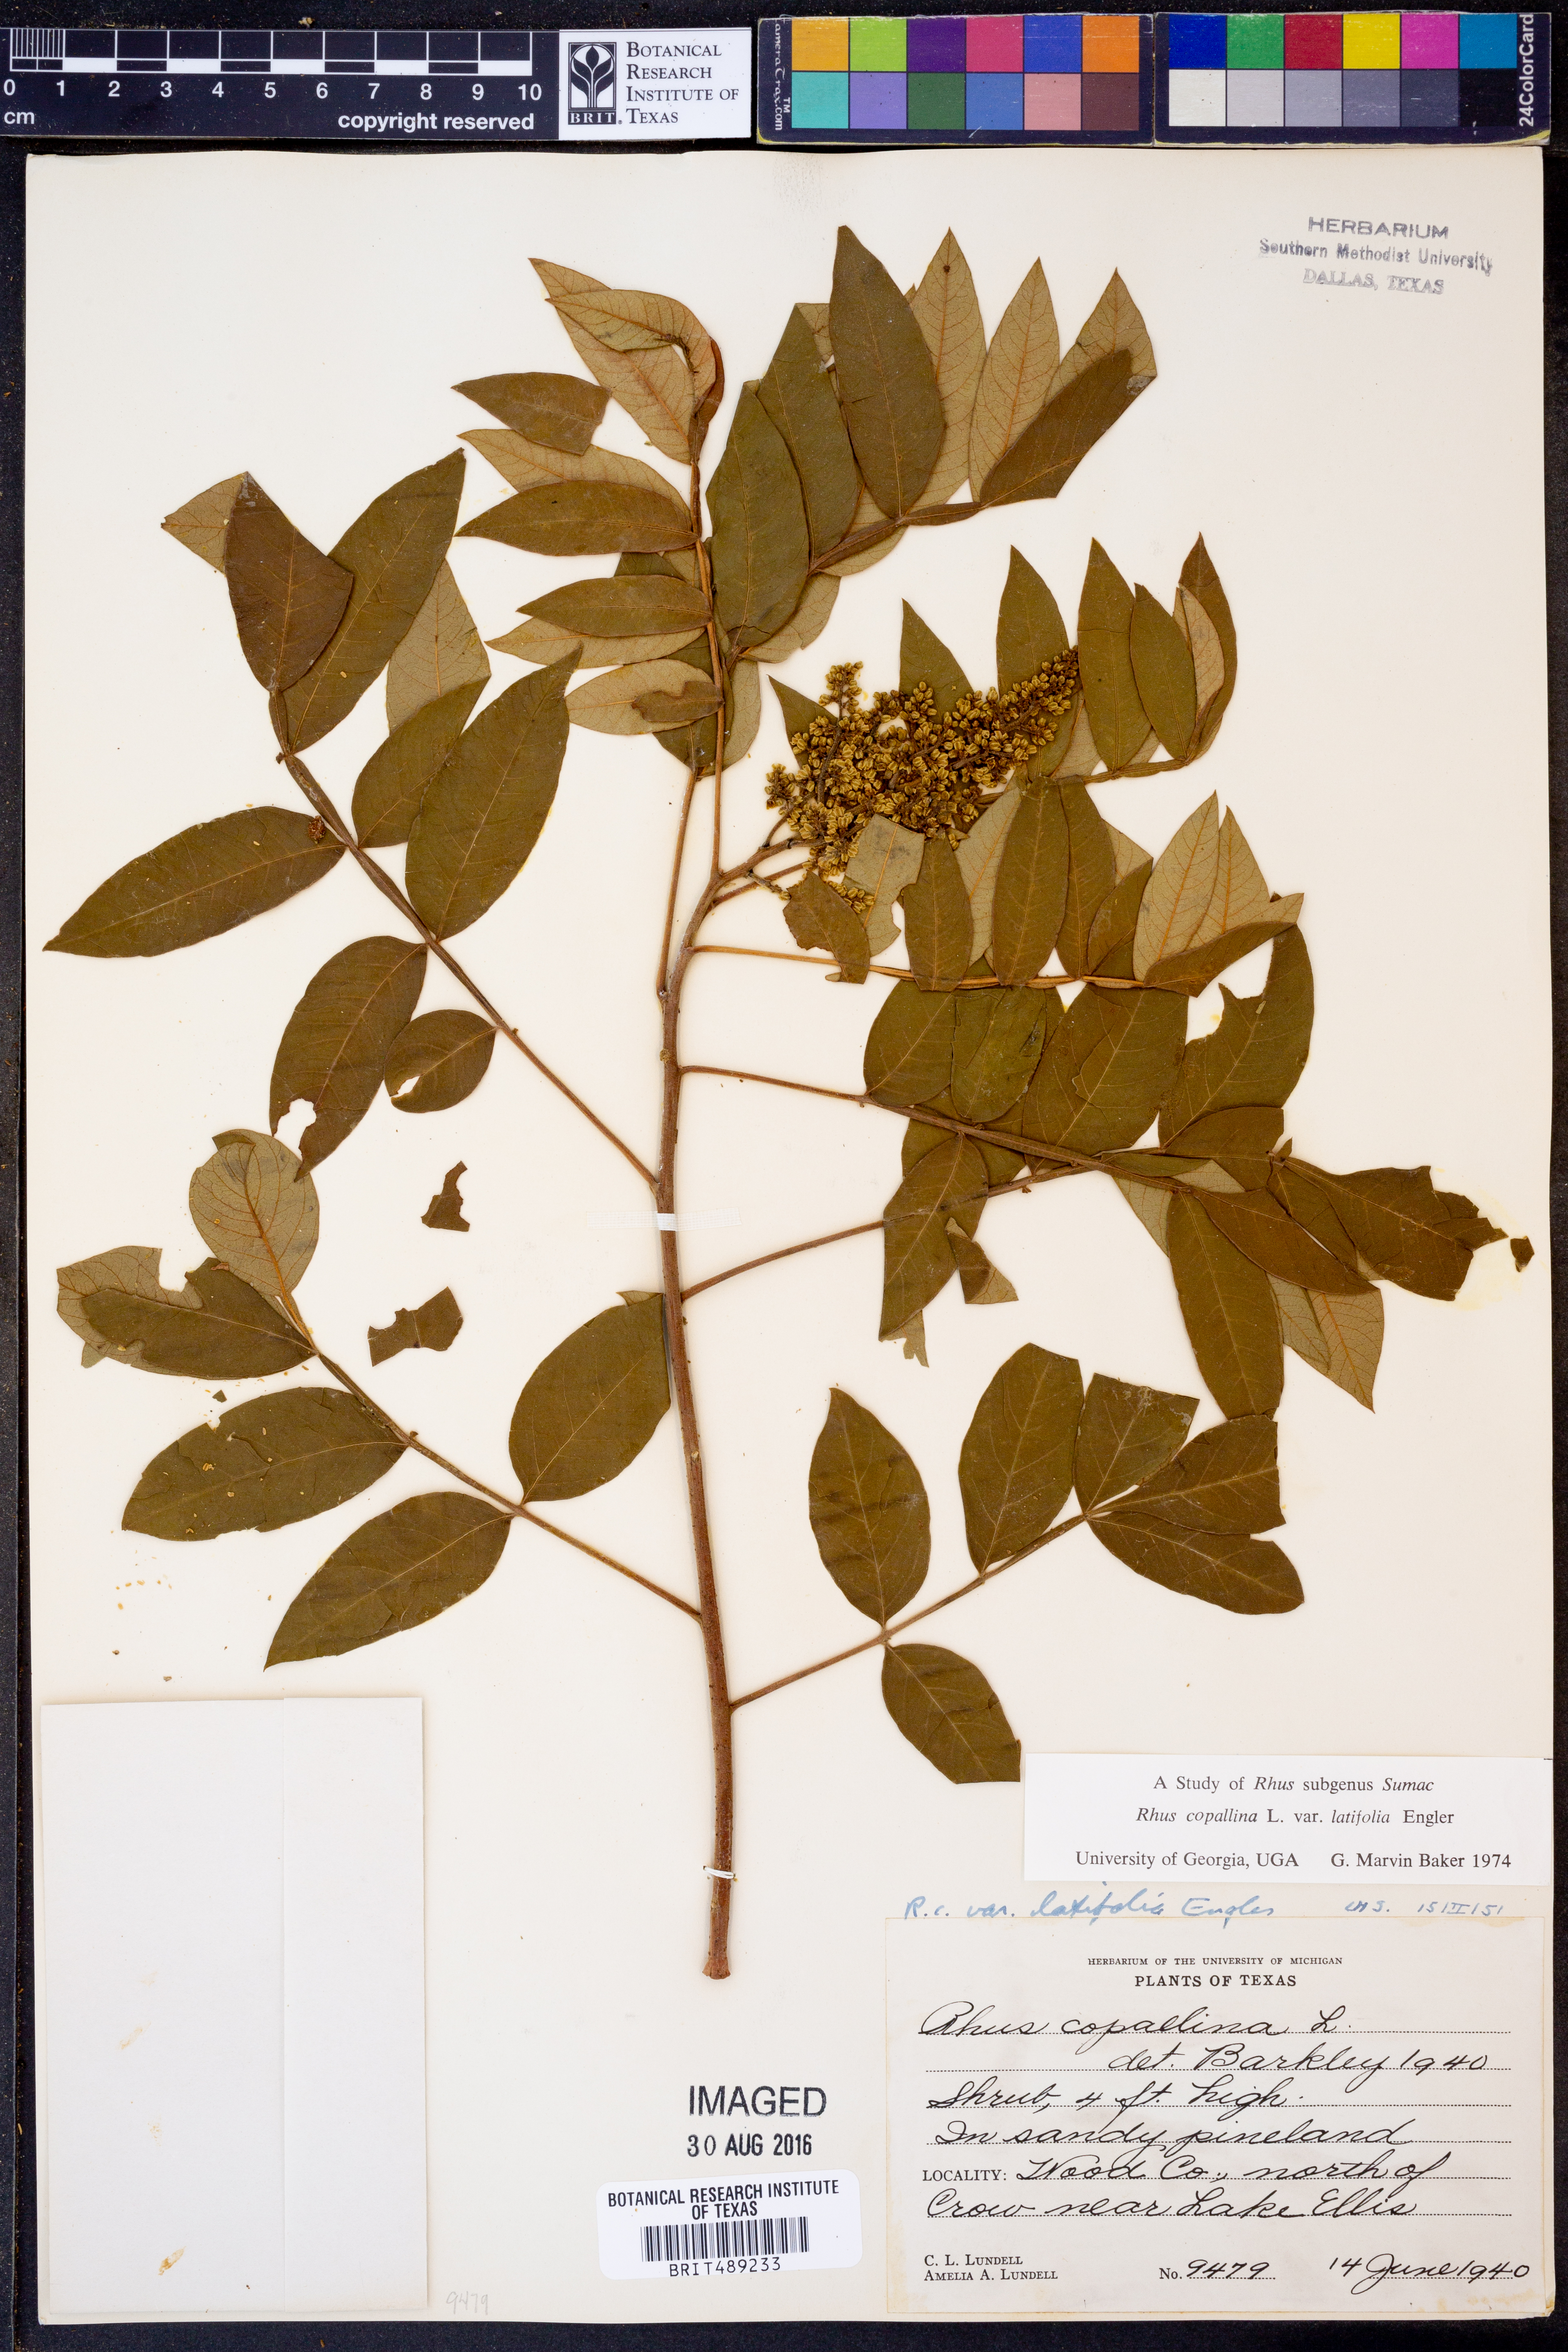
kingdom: Plantae
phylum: Tracheophyta
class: Magnoliopsida
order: Sapindales
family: Anacardiaceae
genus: Rhus
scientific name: Rhus copallina
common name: Shining sumac
